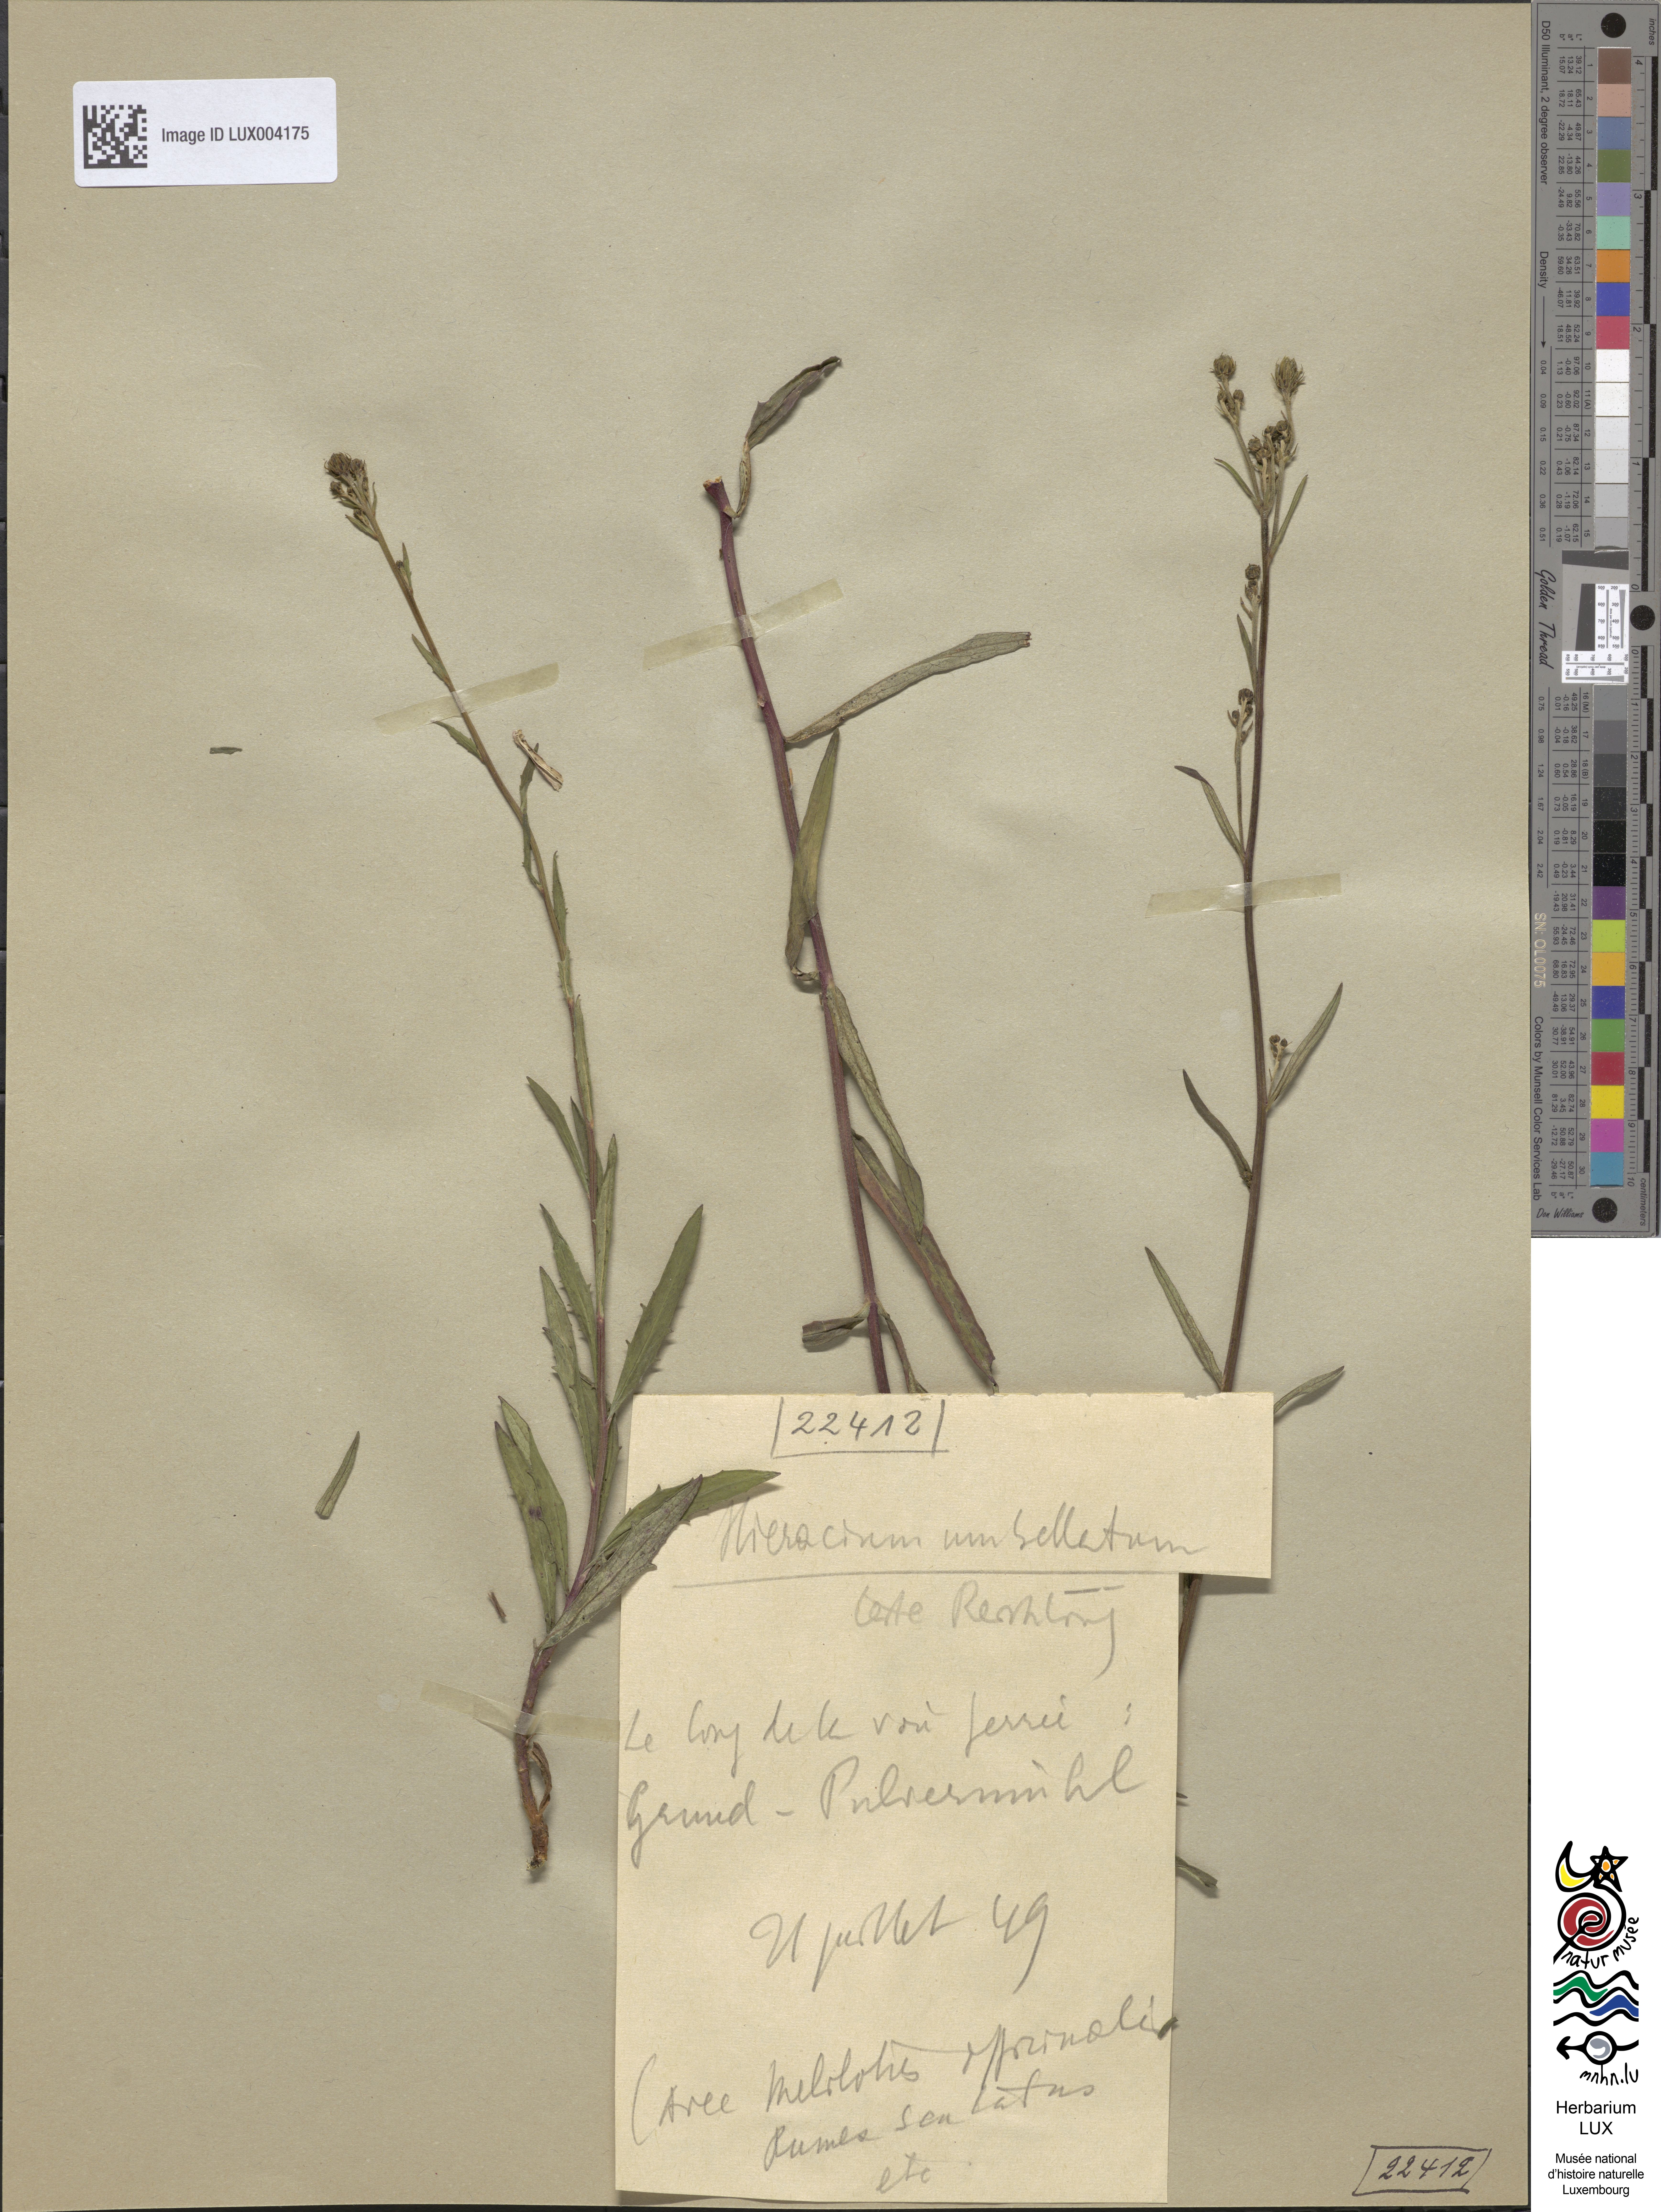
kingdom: Plantae
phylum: Tracheophyta
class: Magnoliopsida
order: Asterales
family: Asteraceae
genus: Hieracium
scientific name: Hieracium umbellatum
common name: Northern hawkweed
